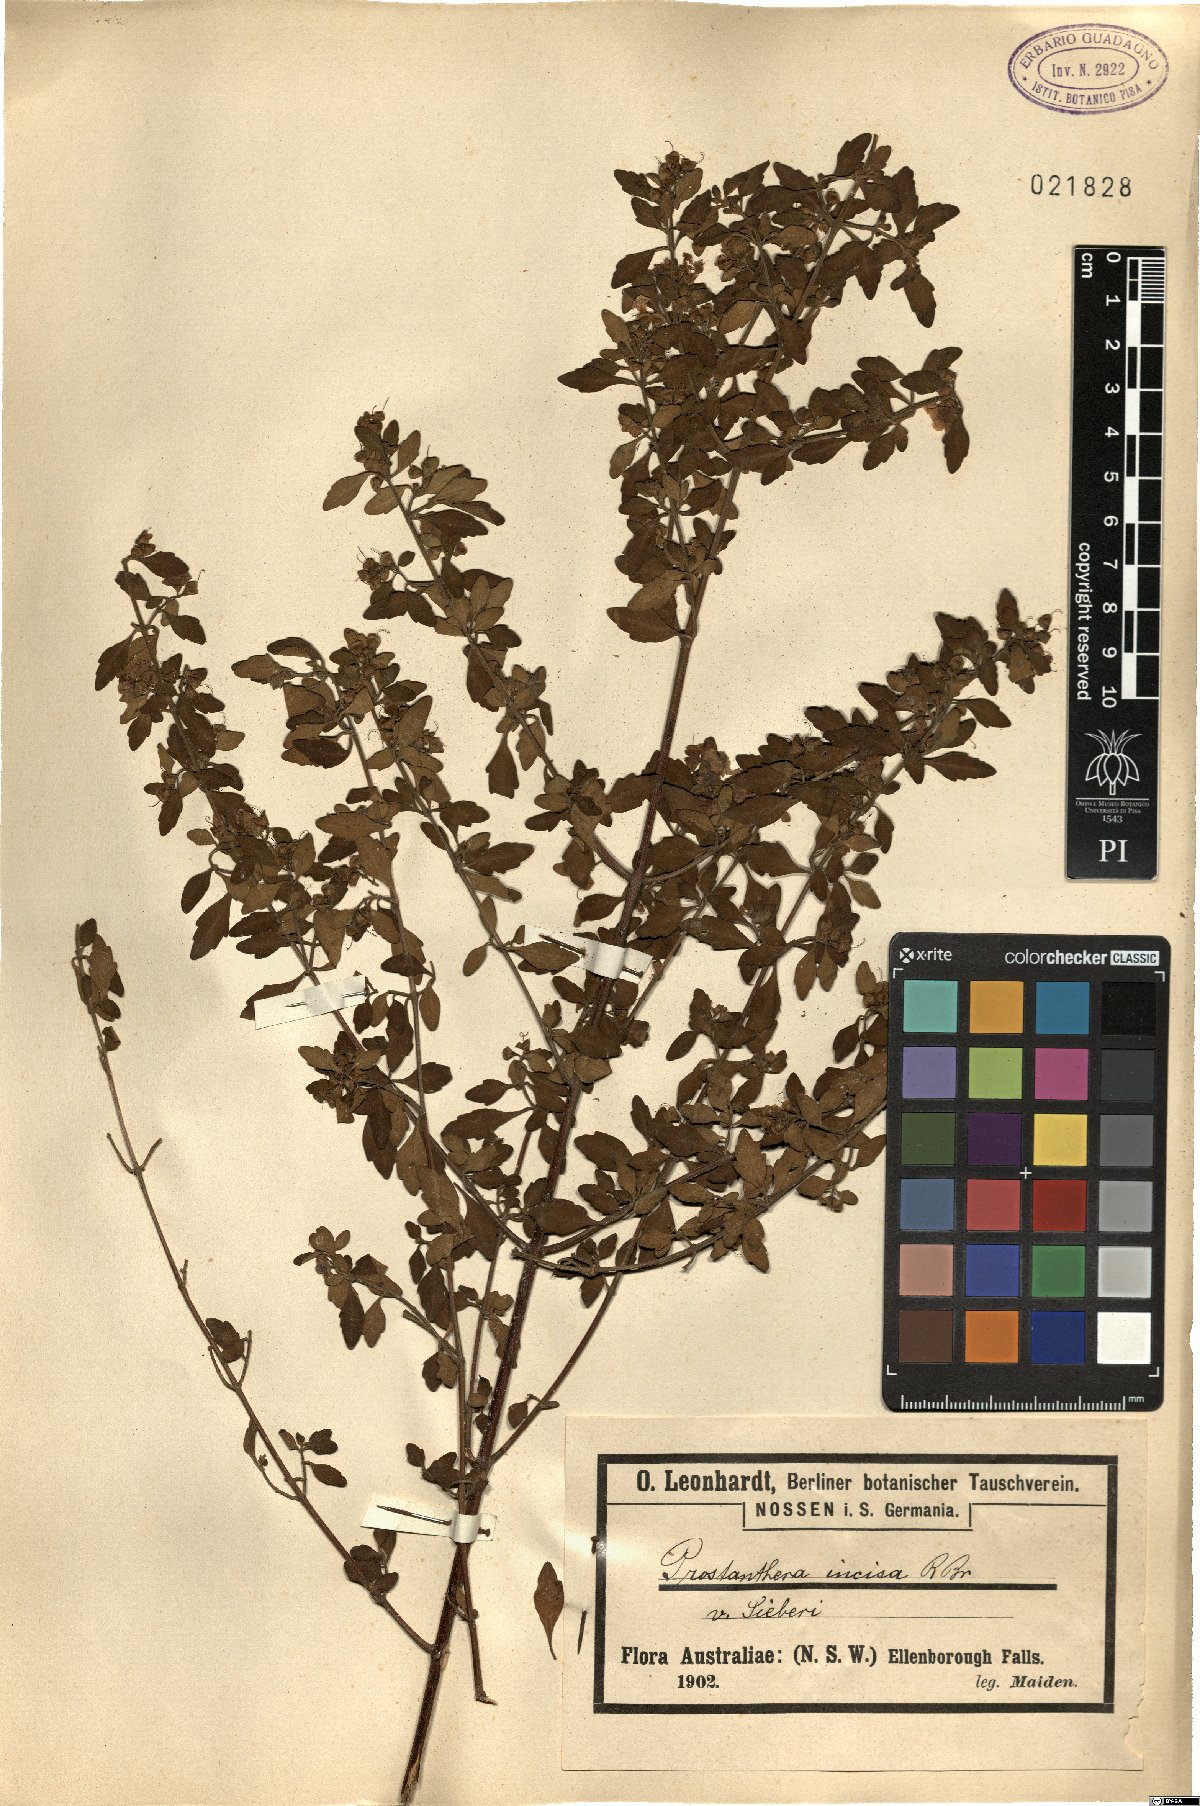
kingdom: Plantae
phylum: Tracheophyta
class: Magnoliopsida
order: Lamiales
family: Lamiaceae
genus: Prostanthera
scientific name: Prostanthera sieberi
